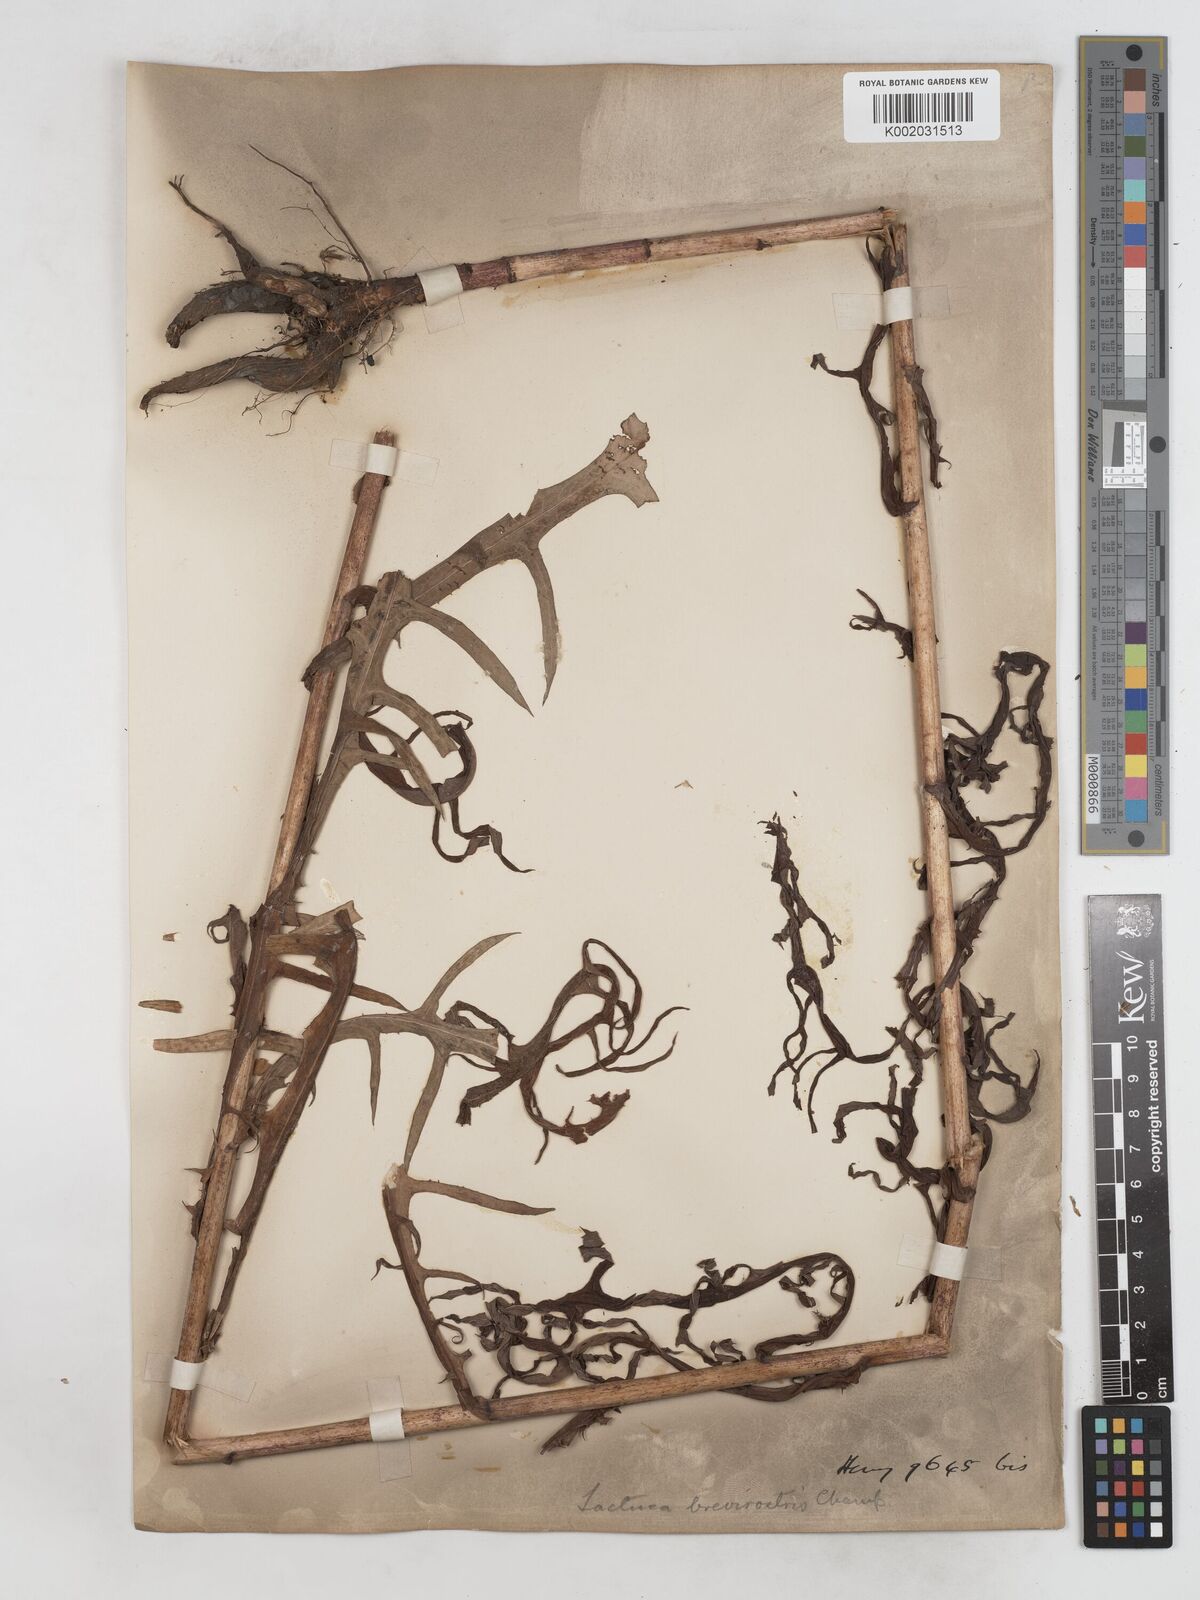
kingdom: Plantae
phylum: Tracheophyta
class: Magnoliopsida
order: Asterales
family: Asteraceae
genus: Lactuca
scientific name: Lactuca indica
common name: Wild lettuce
